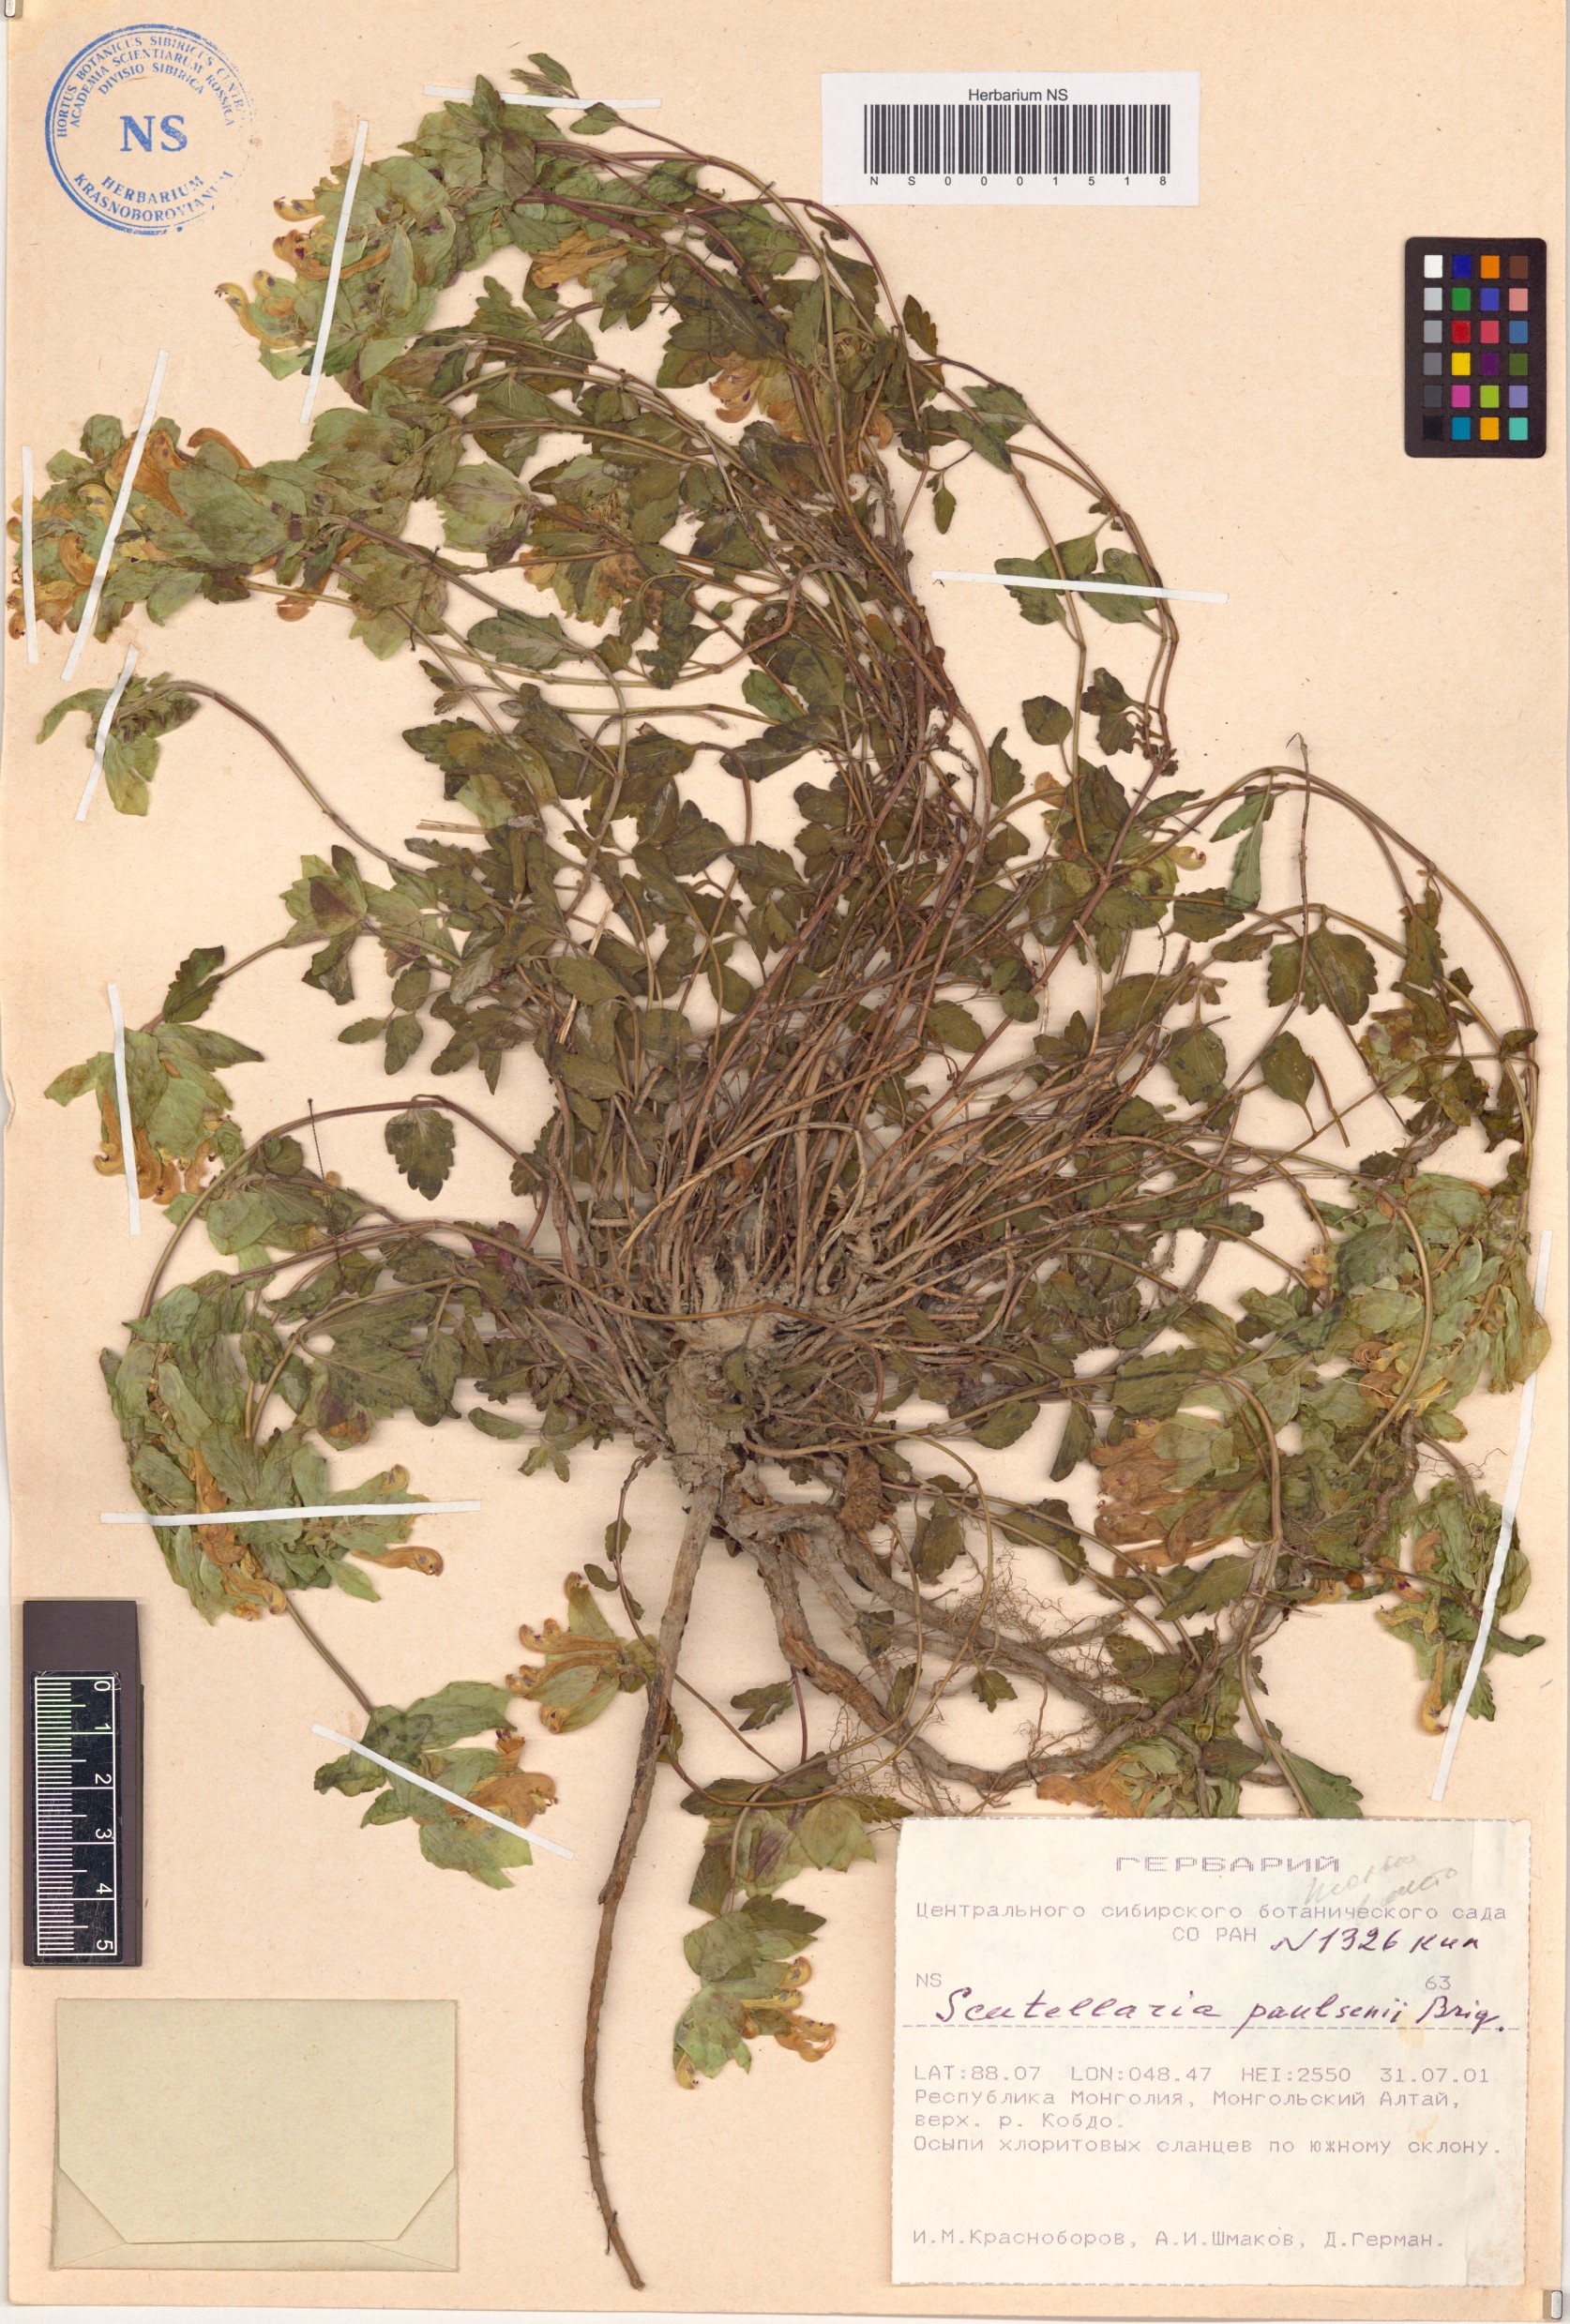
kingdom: Plantae
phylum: Tracheophyta
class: Magnoliopsida
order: Lamiales
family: Lamiaceae
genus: Scutellaria
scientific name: Scutellaria paulsenii
